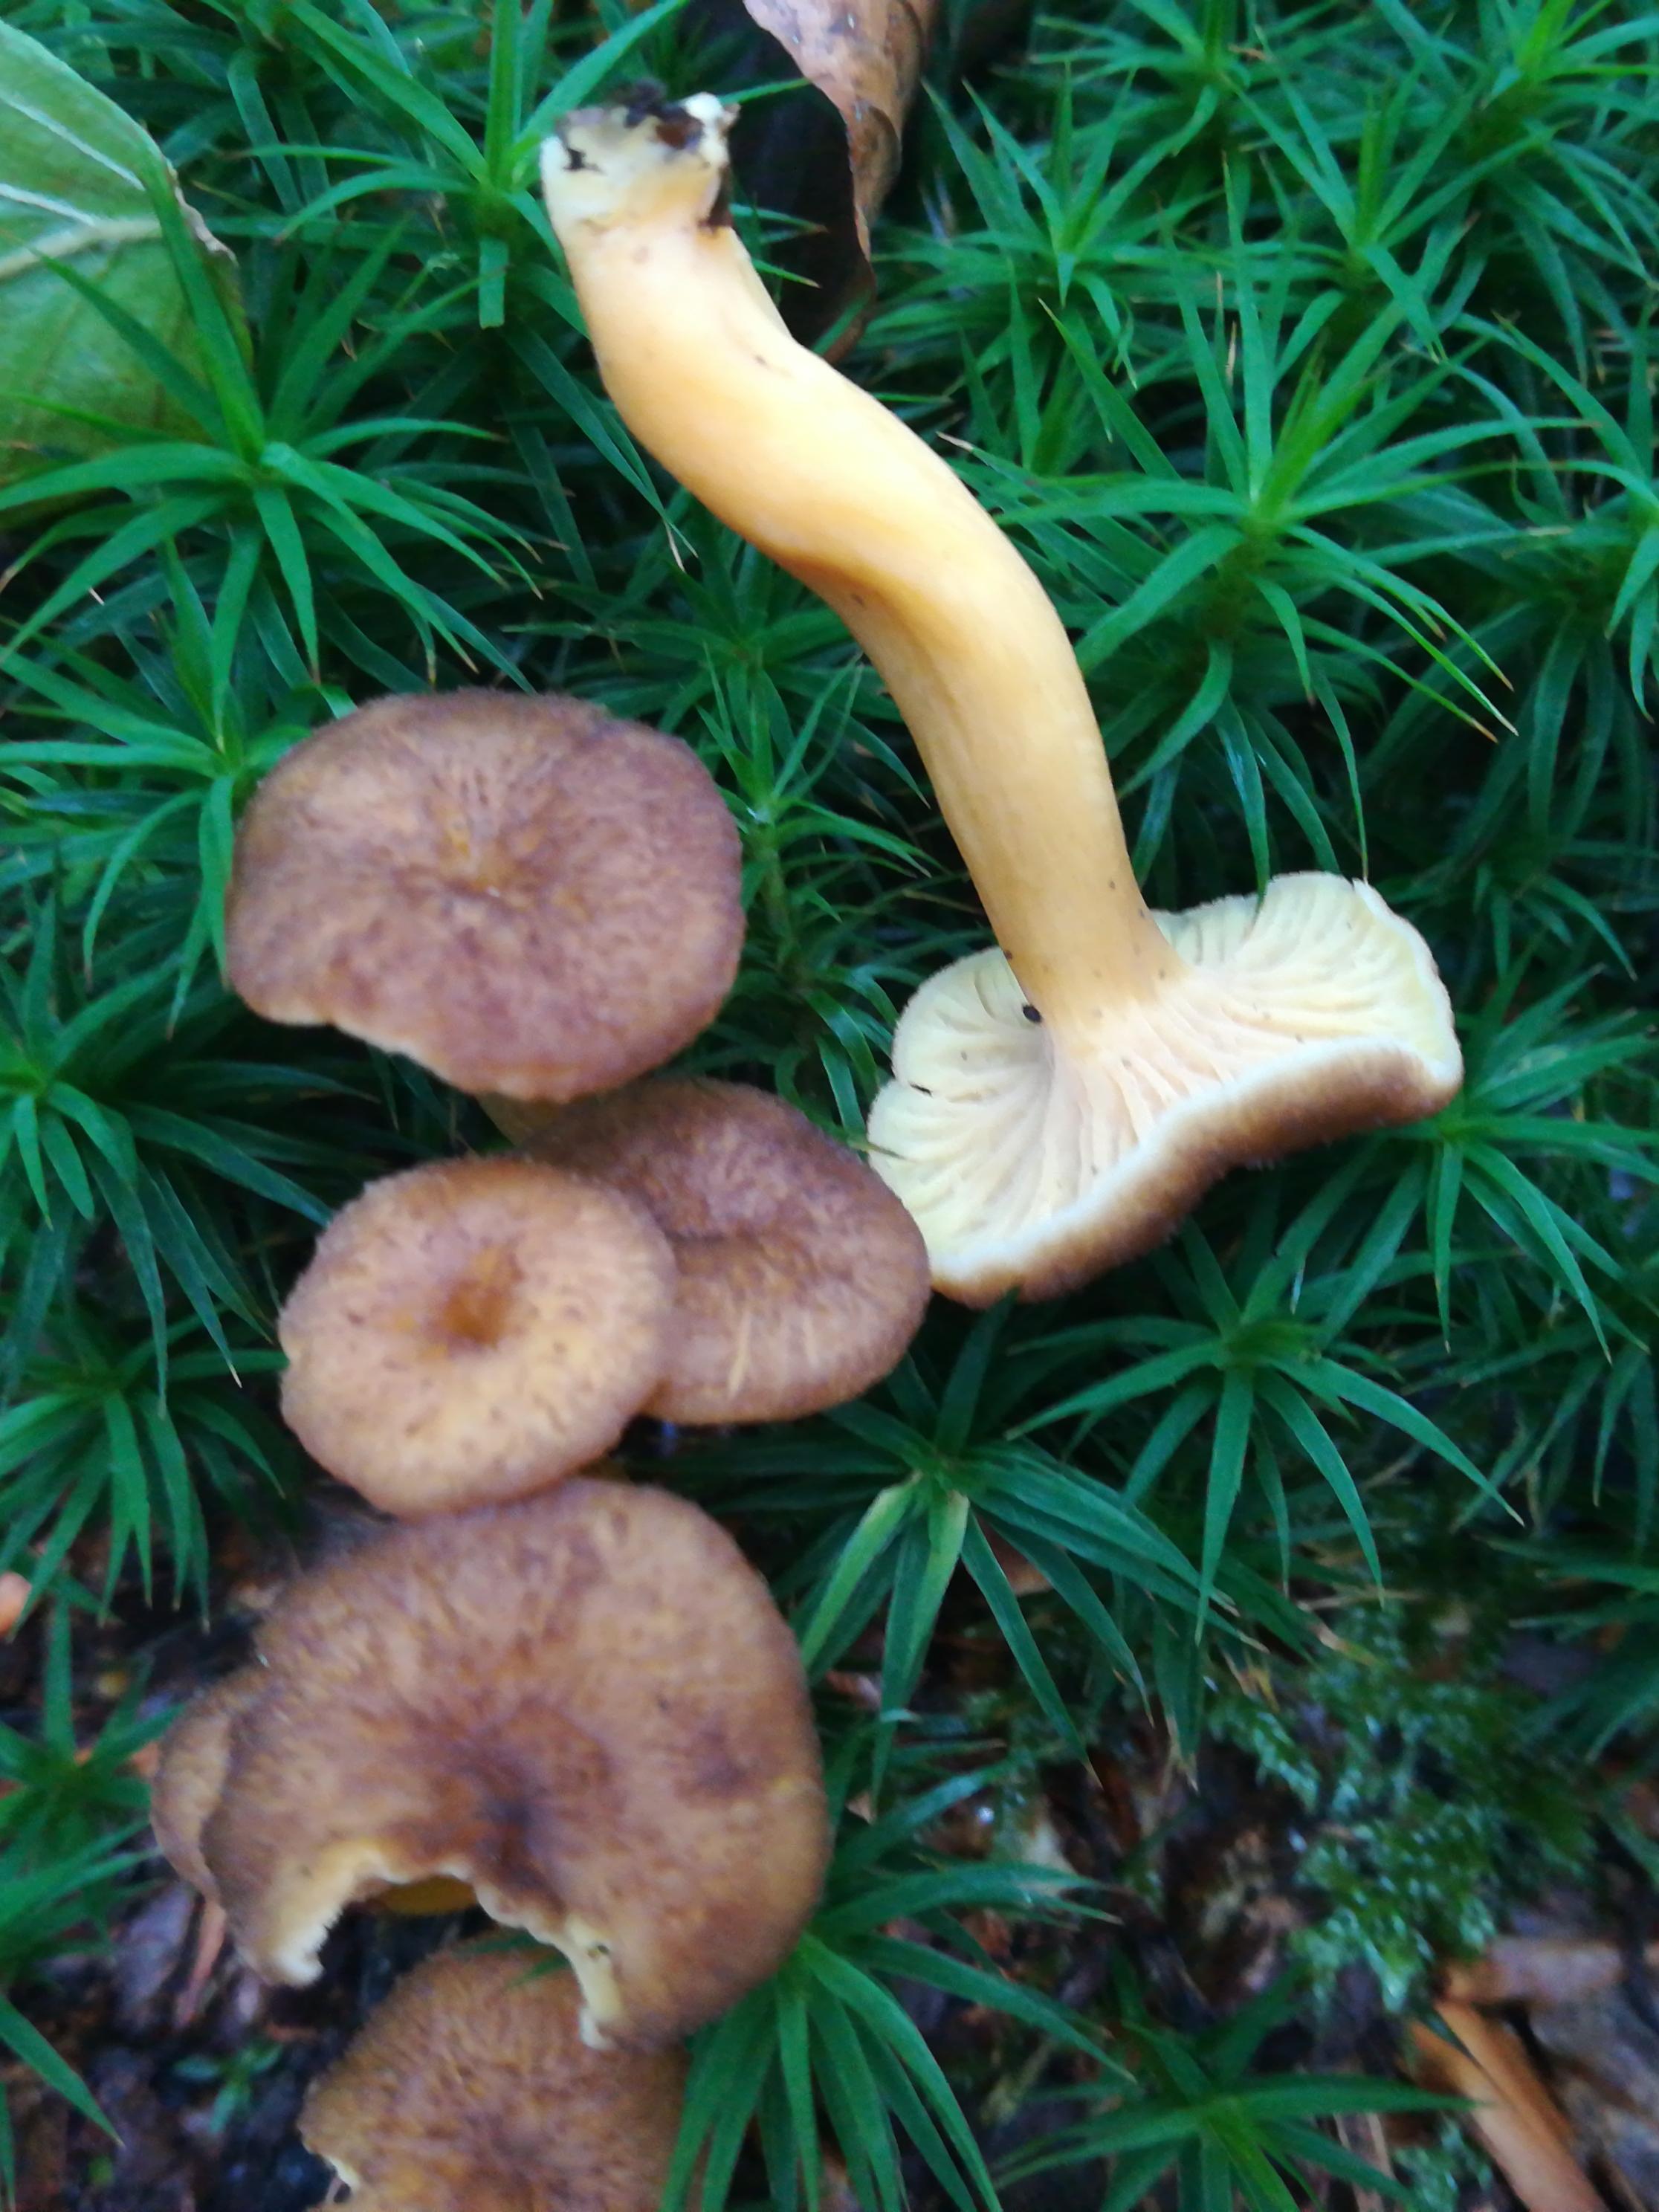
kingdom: Fungi
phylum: Basidiomycota
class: Agaricomycetes
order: Cantharellales
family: Hydnaceae
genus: Craterellus
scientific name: Craterellus tubaeformis
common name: tragt-kantarel
